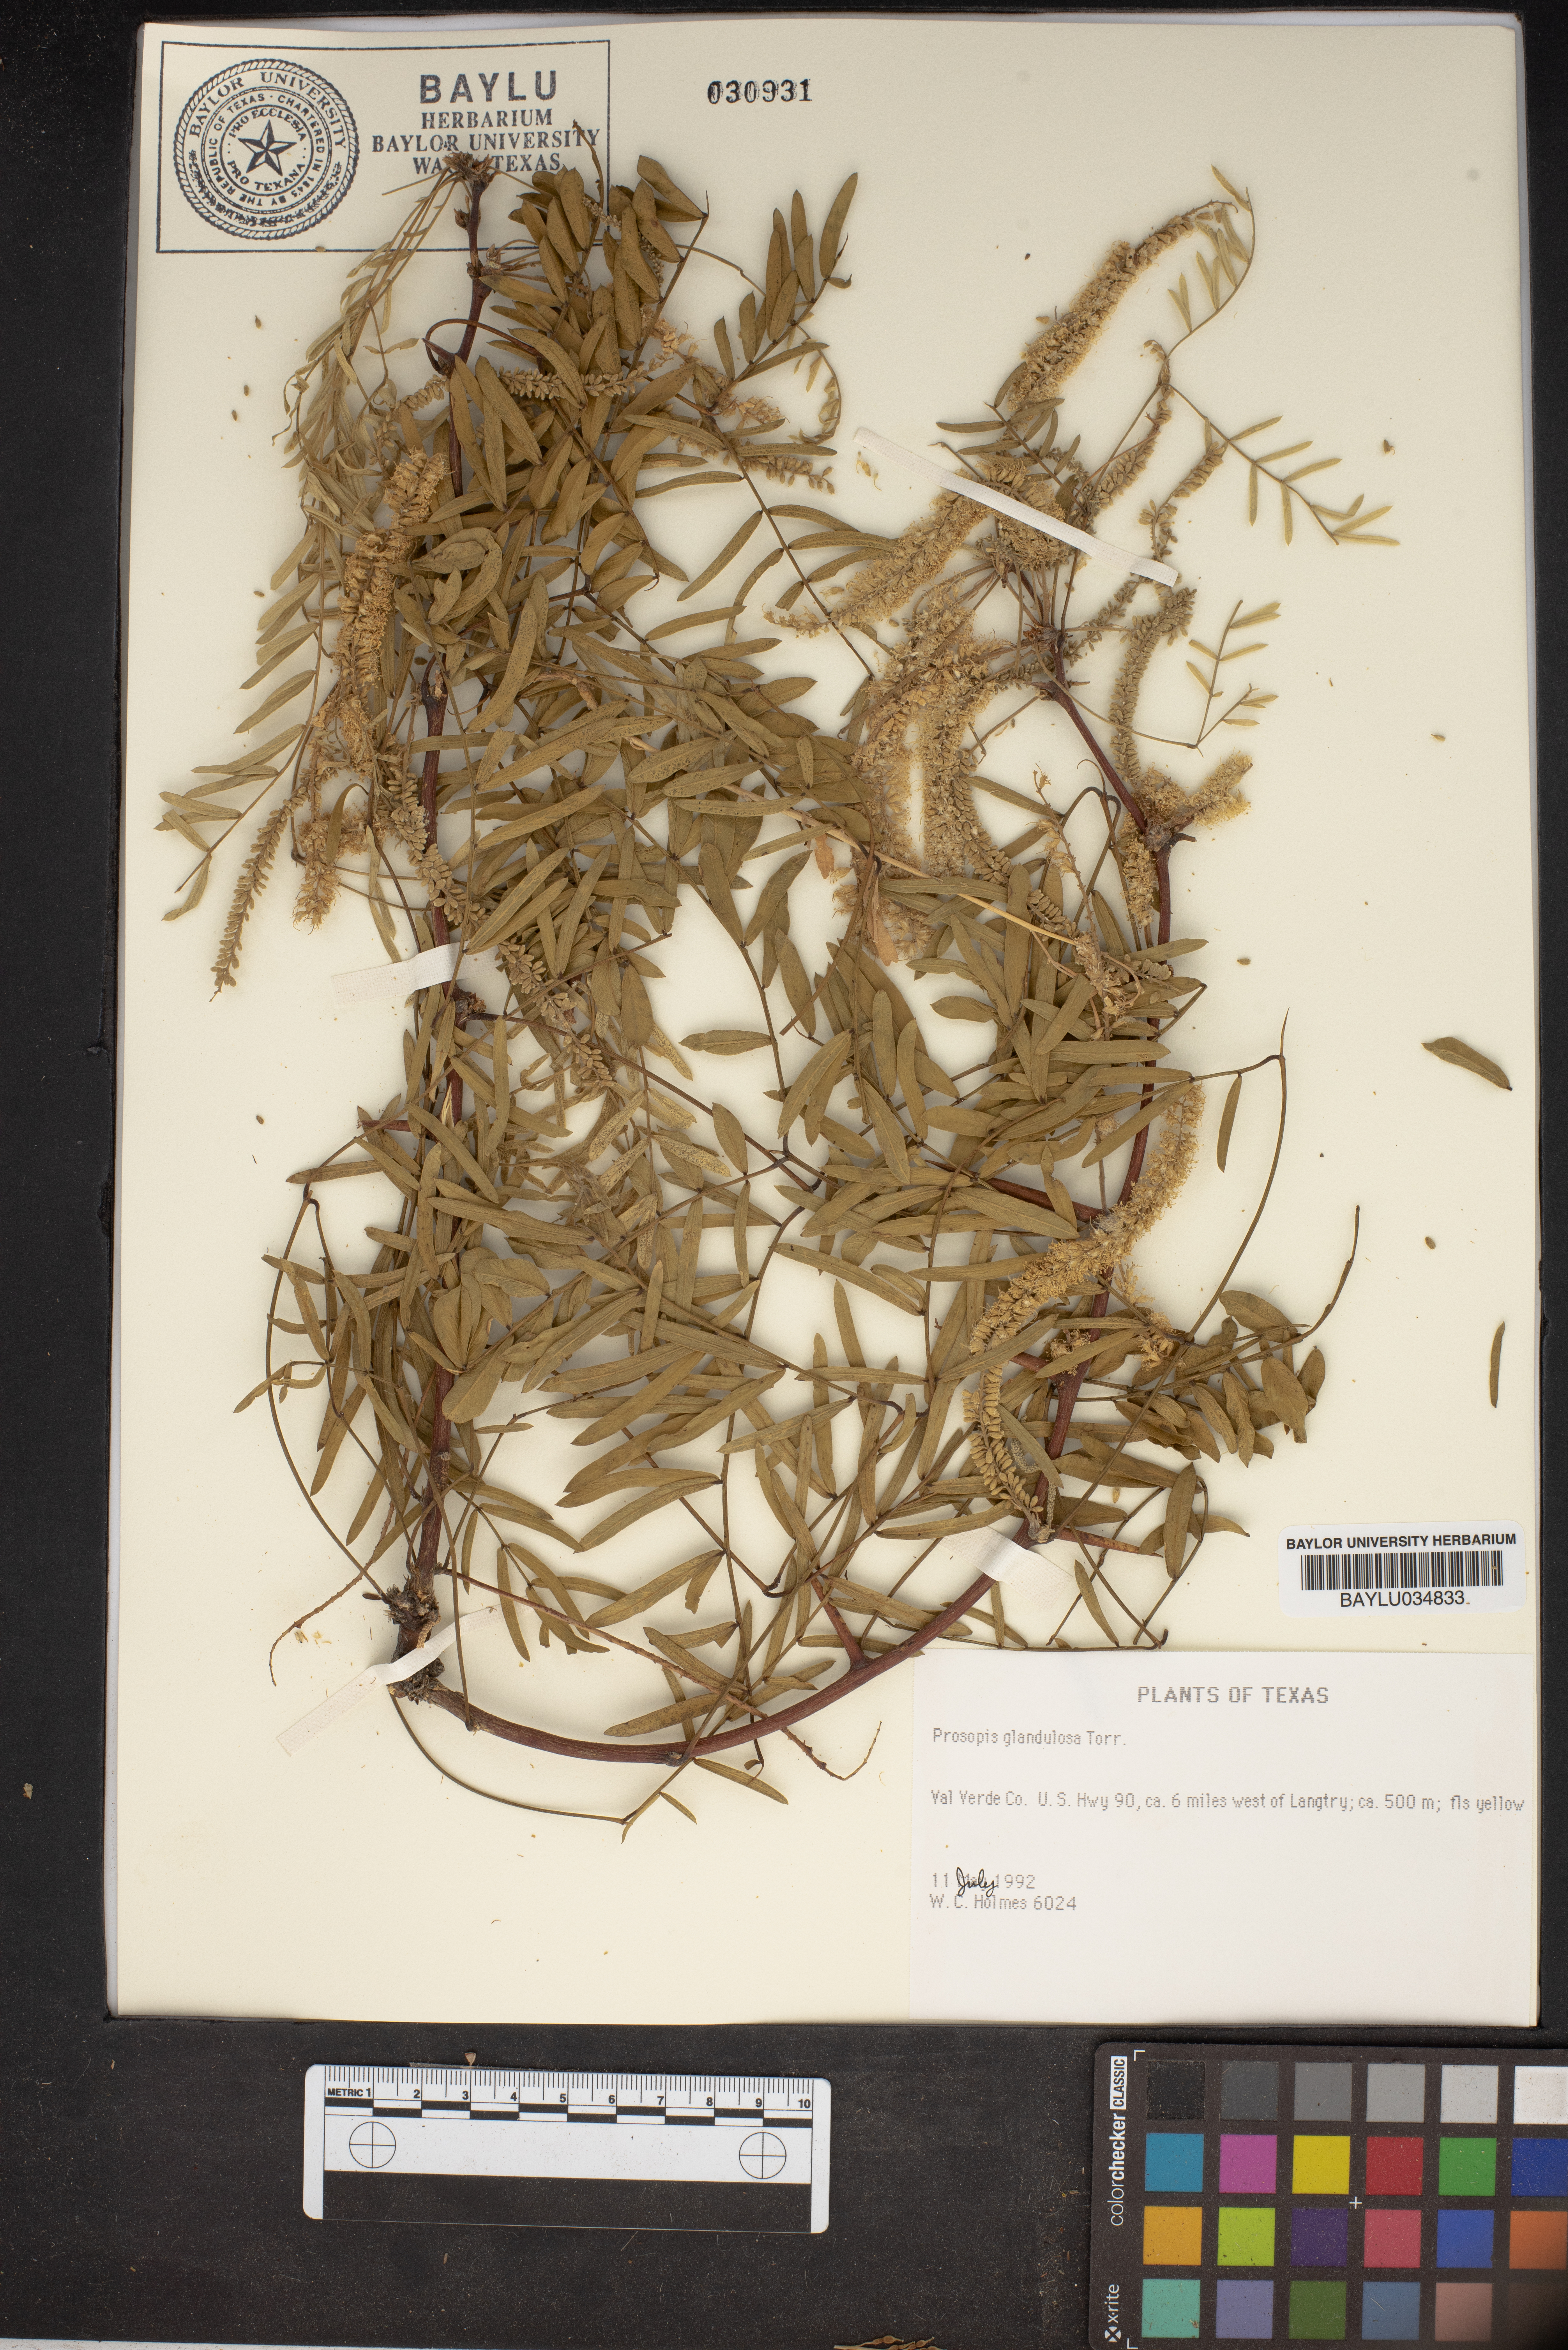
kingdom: Plantae
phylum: Tracheophyta
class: Magnoliopsida
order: Fabales
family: Fabaceae
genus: Prosopis
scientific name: Prosopis glandulosa
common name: Honey mesquite
